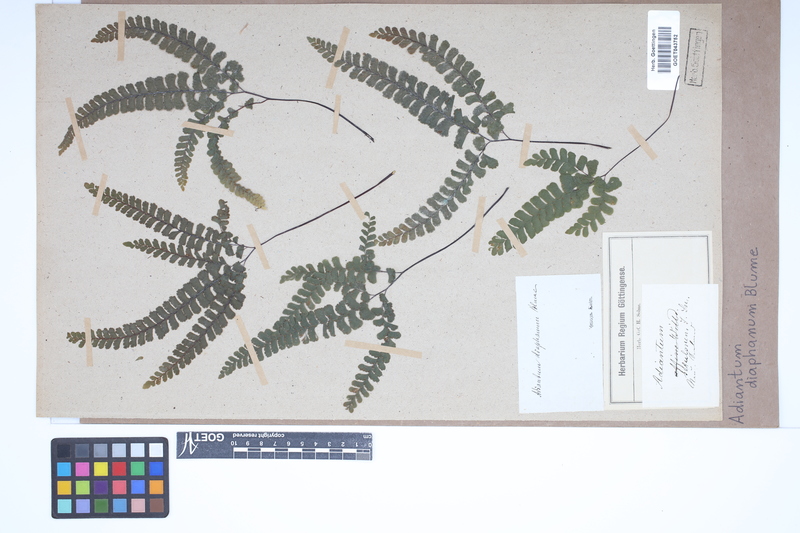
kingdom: Plantae
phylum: Tracheophyta
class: Polypodiopsida
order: Polypodiales
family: Pteridaceae
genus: Adiantum
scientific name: Adiantum diaphanum
